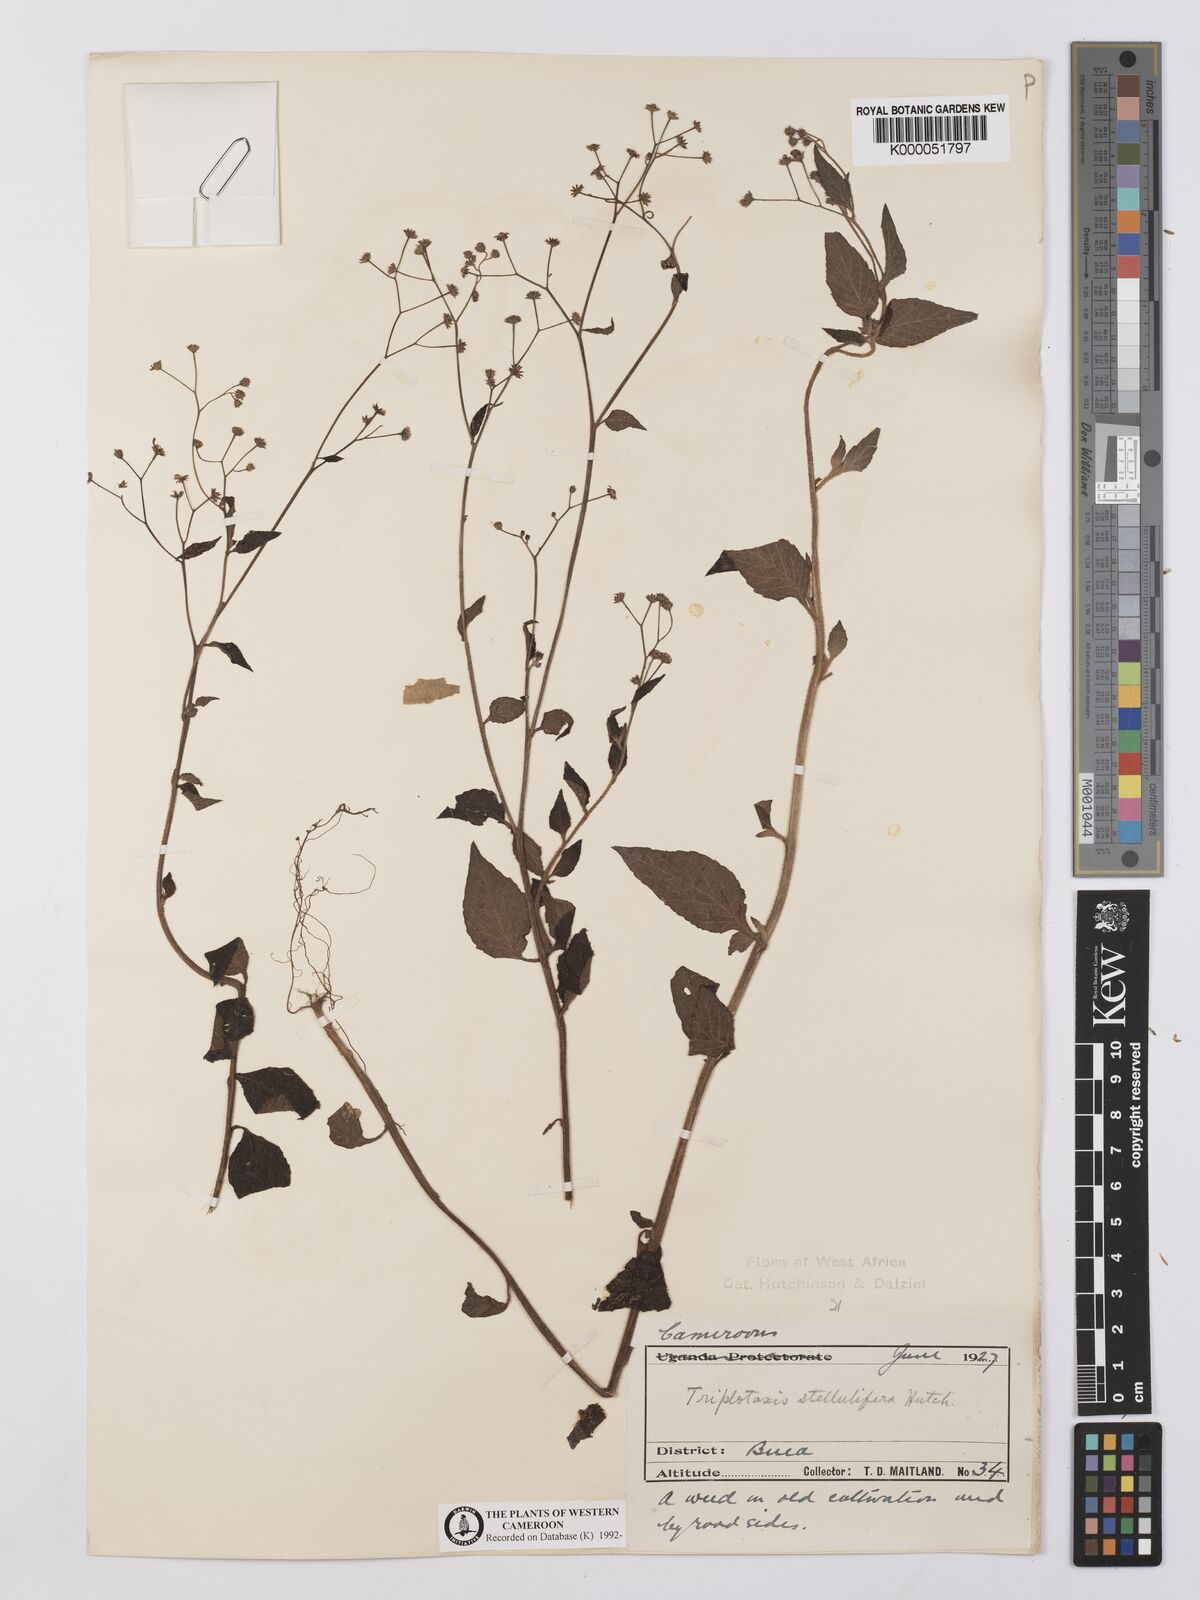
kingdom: Plantae
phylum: Tracheophyta
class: Magnoliopsida
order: Asterales
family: Asteraceae
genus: Cyanthillium
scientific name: Cyanthillium stelluliferum
